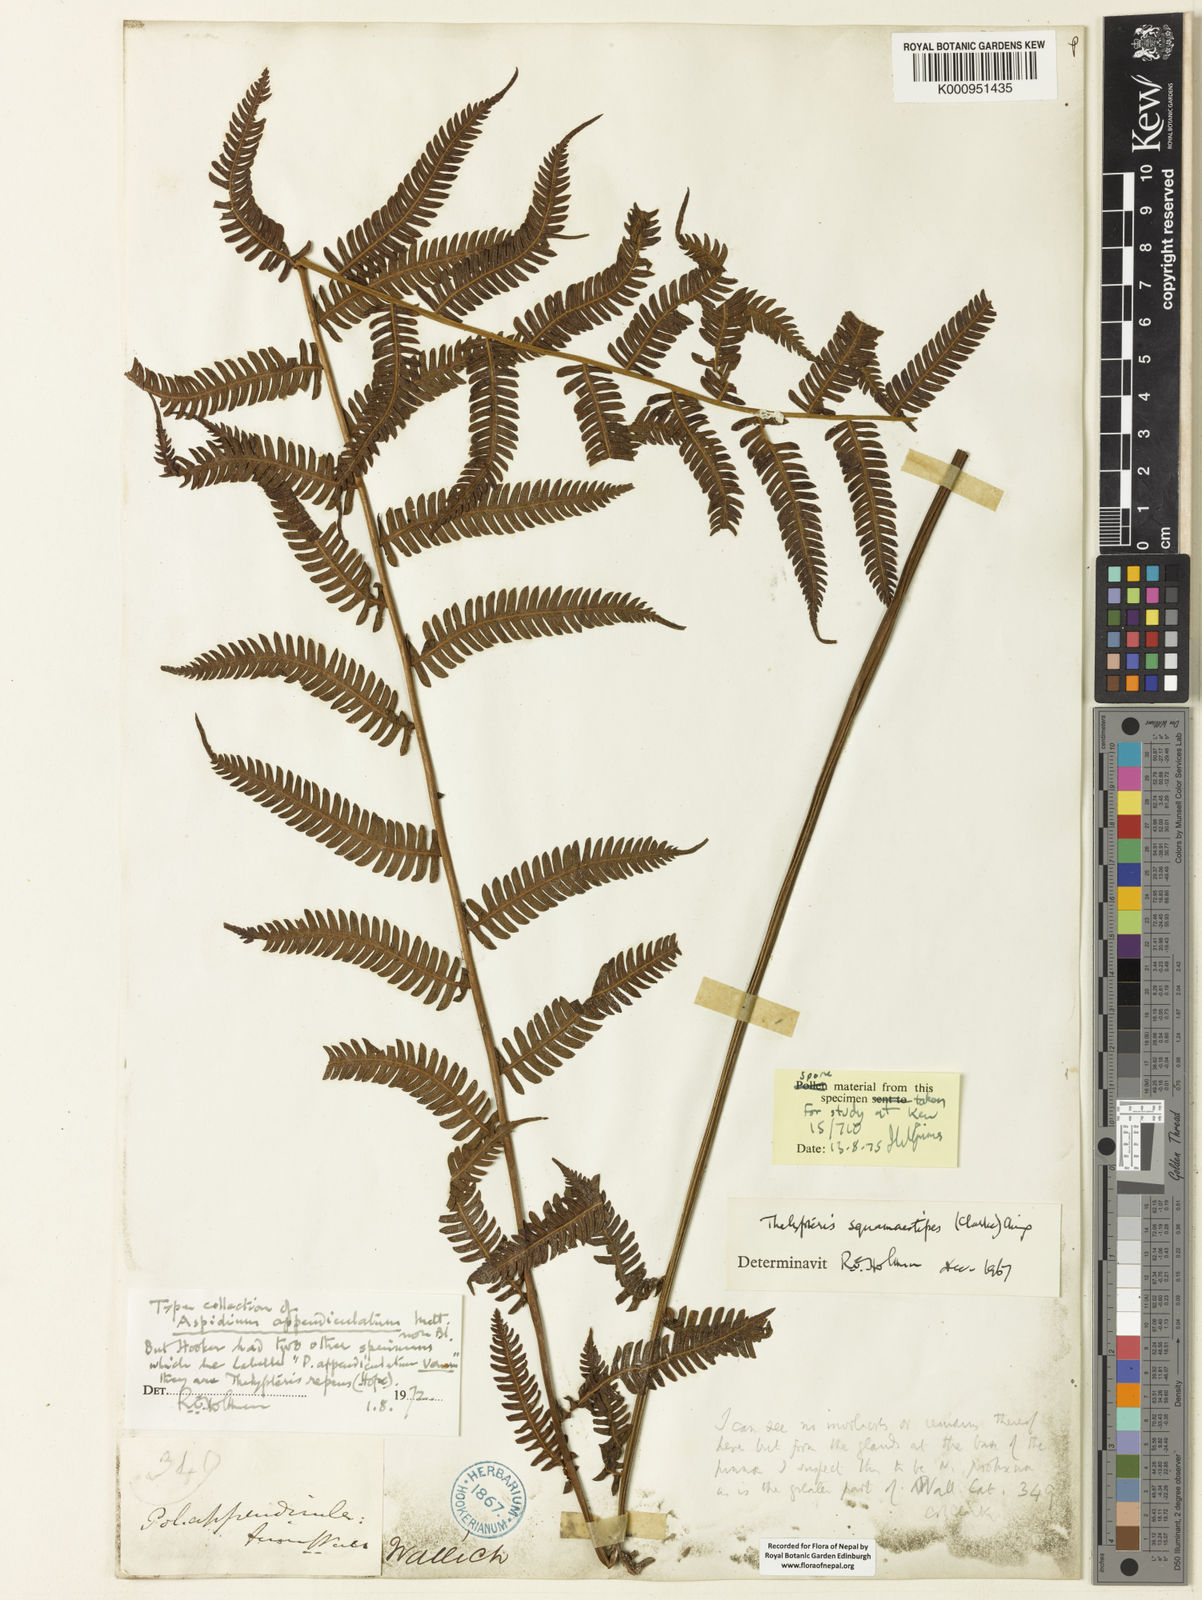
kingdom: Plantae
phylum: Tracheophyta
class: Polypodiopsida
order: Polypodiales
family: Thelypteridaceae
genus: Cyclogramma
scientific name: Cyclogramma
